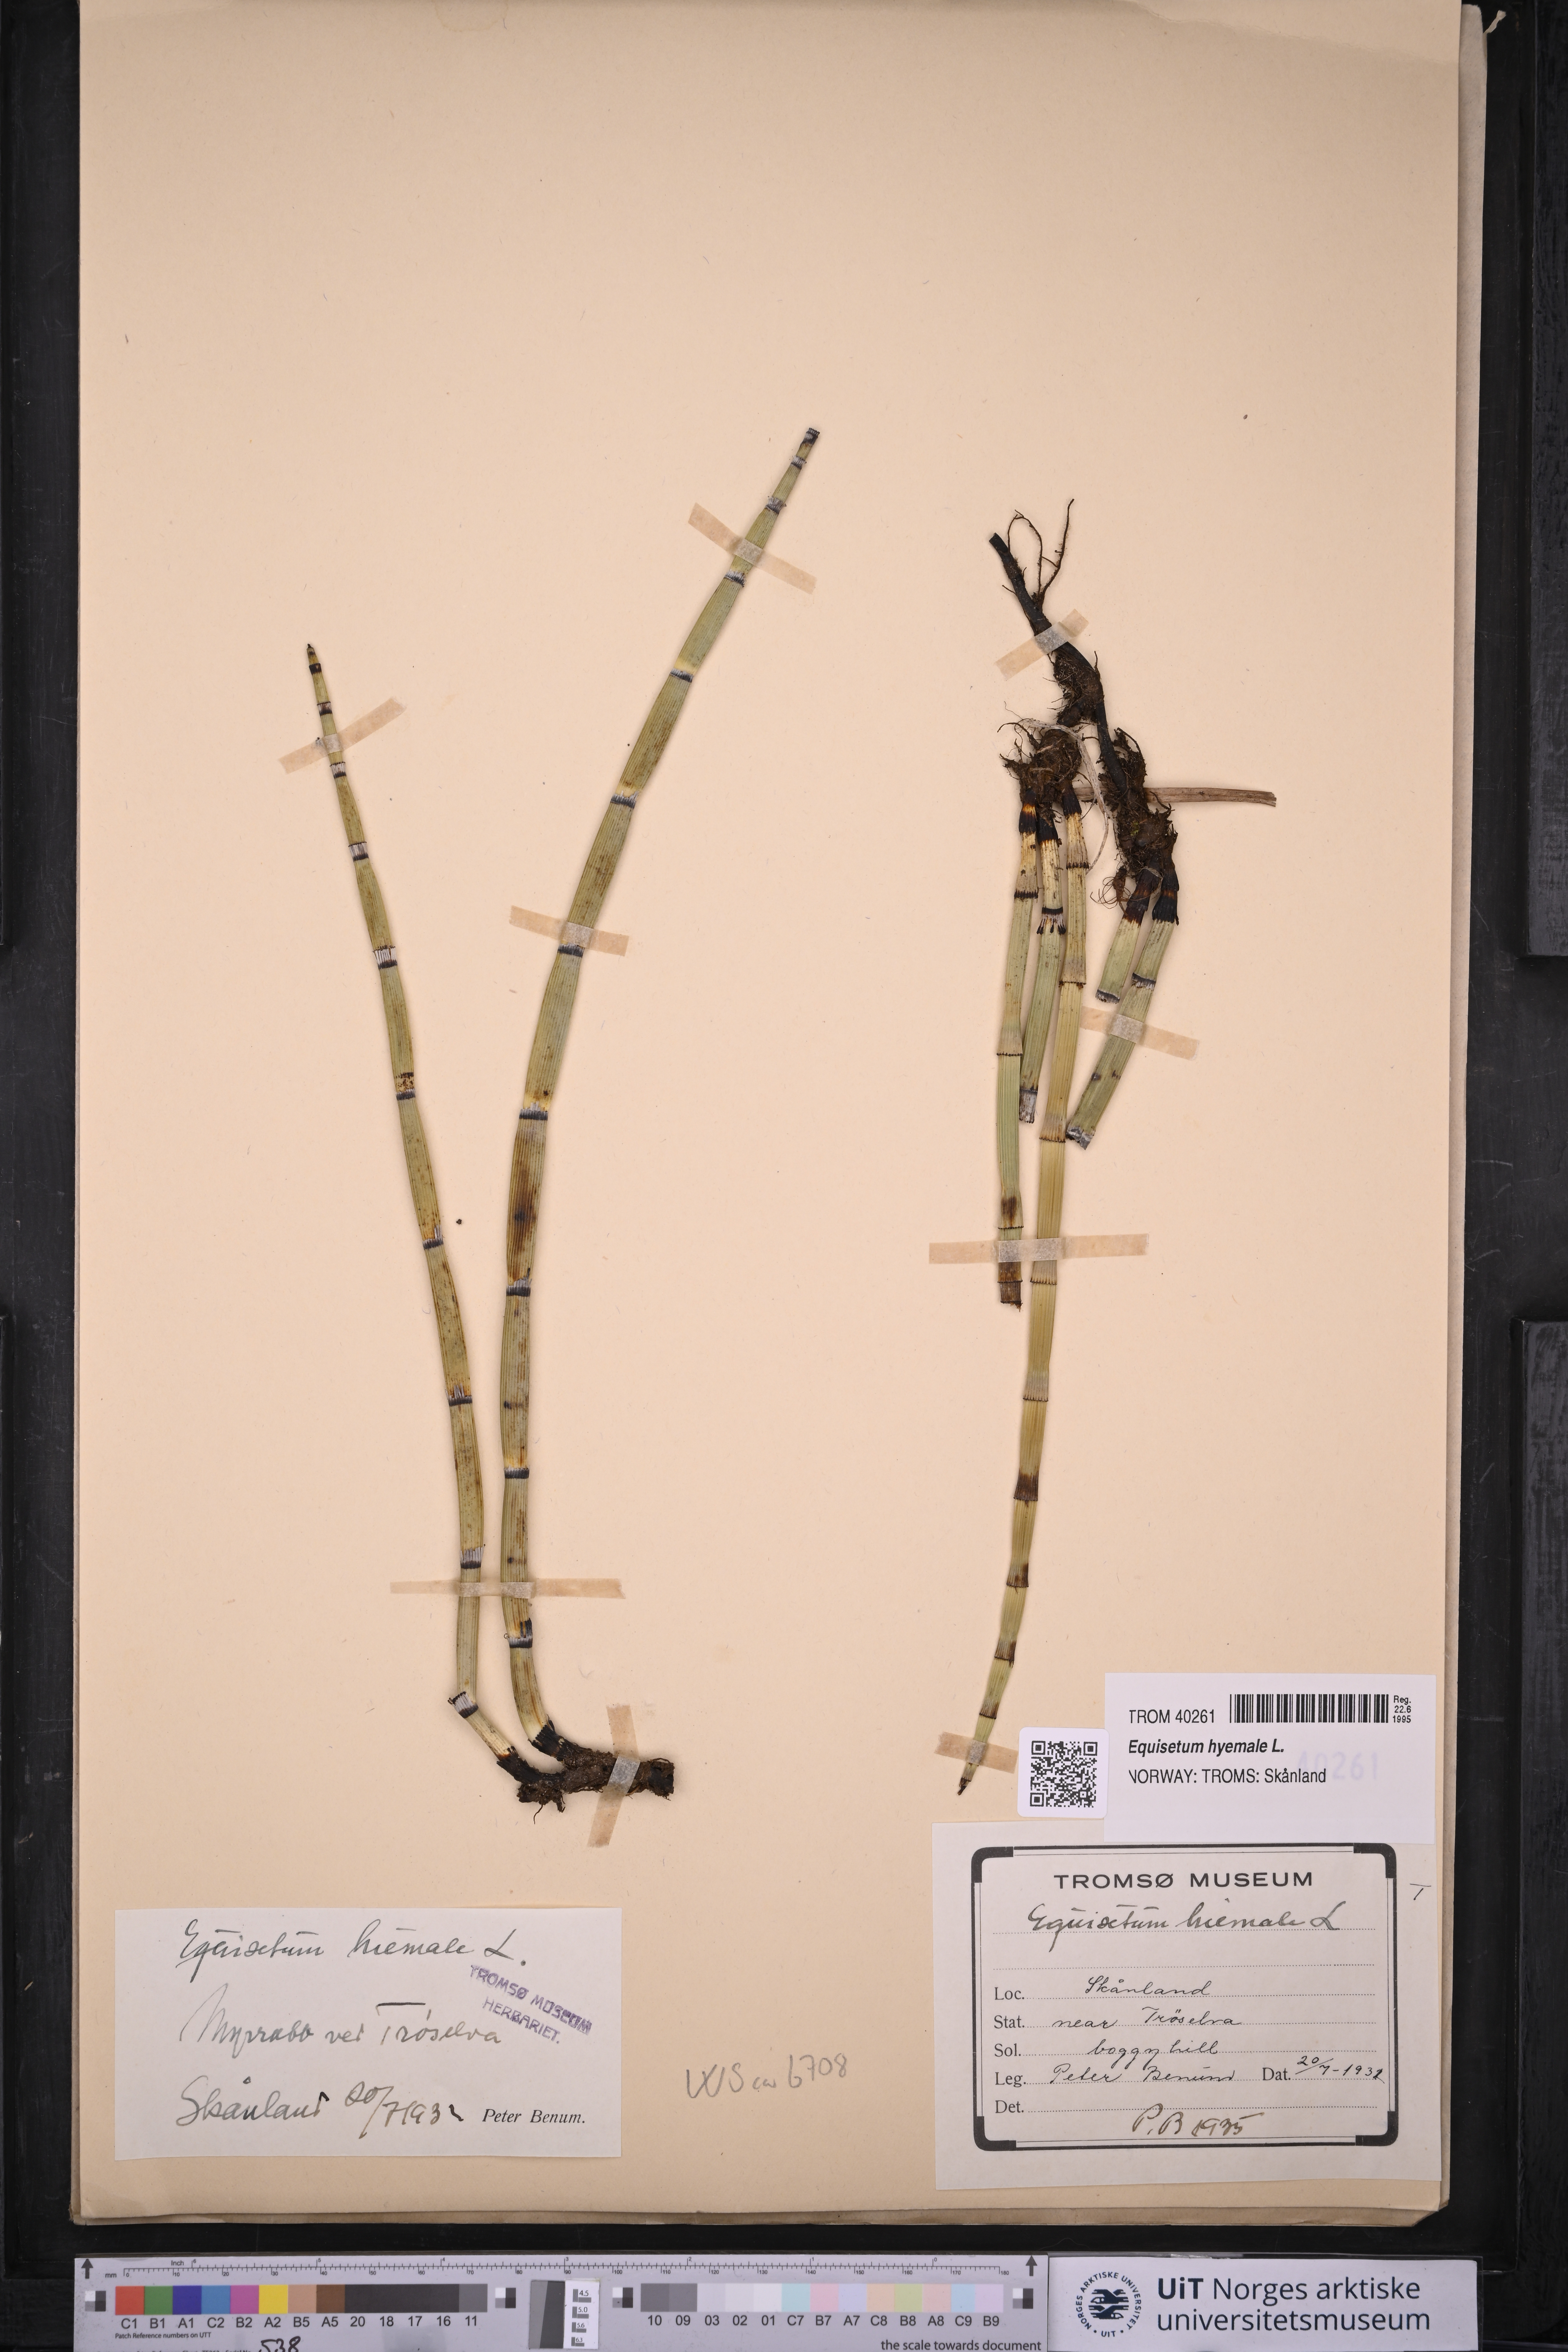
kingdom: Plantae
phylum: Tracheophyta
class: Polypodiopsida
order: Equisetales
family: Equisetaceae
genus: Equisetum
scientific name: Equisetum hyemale
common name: Rough horsetail
